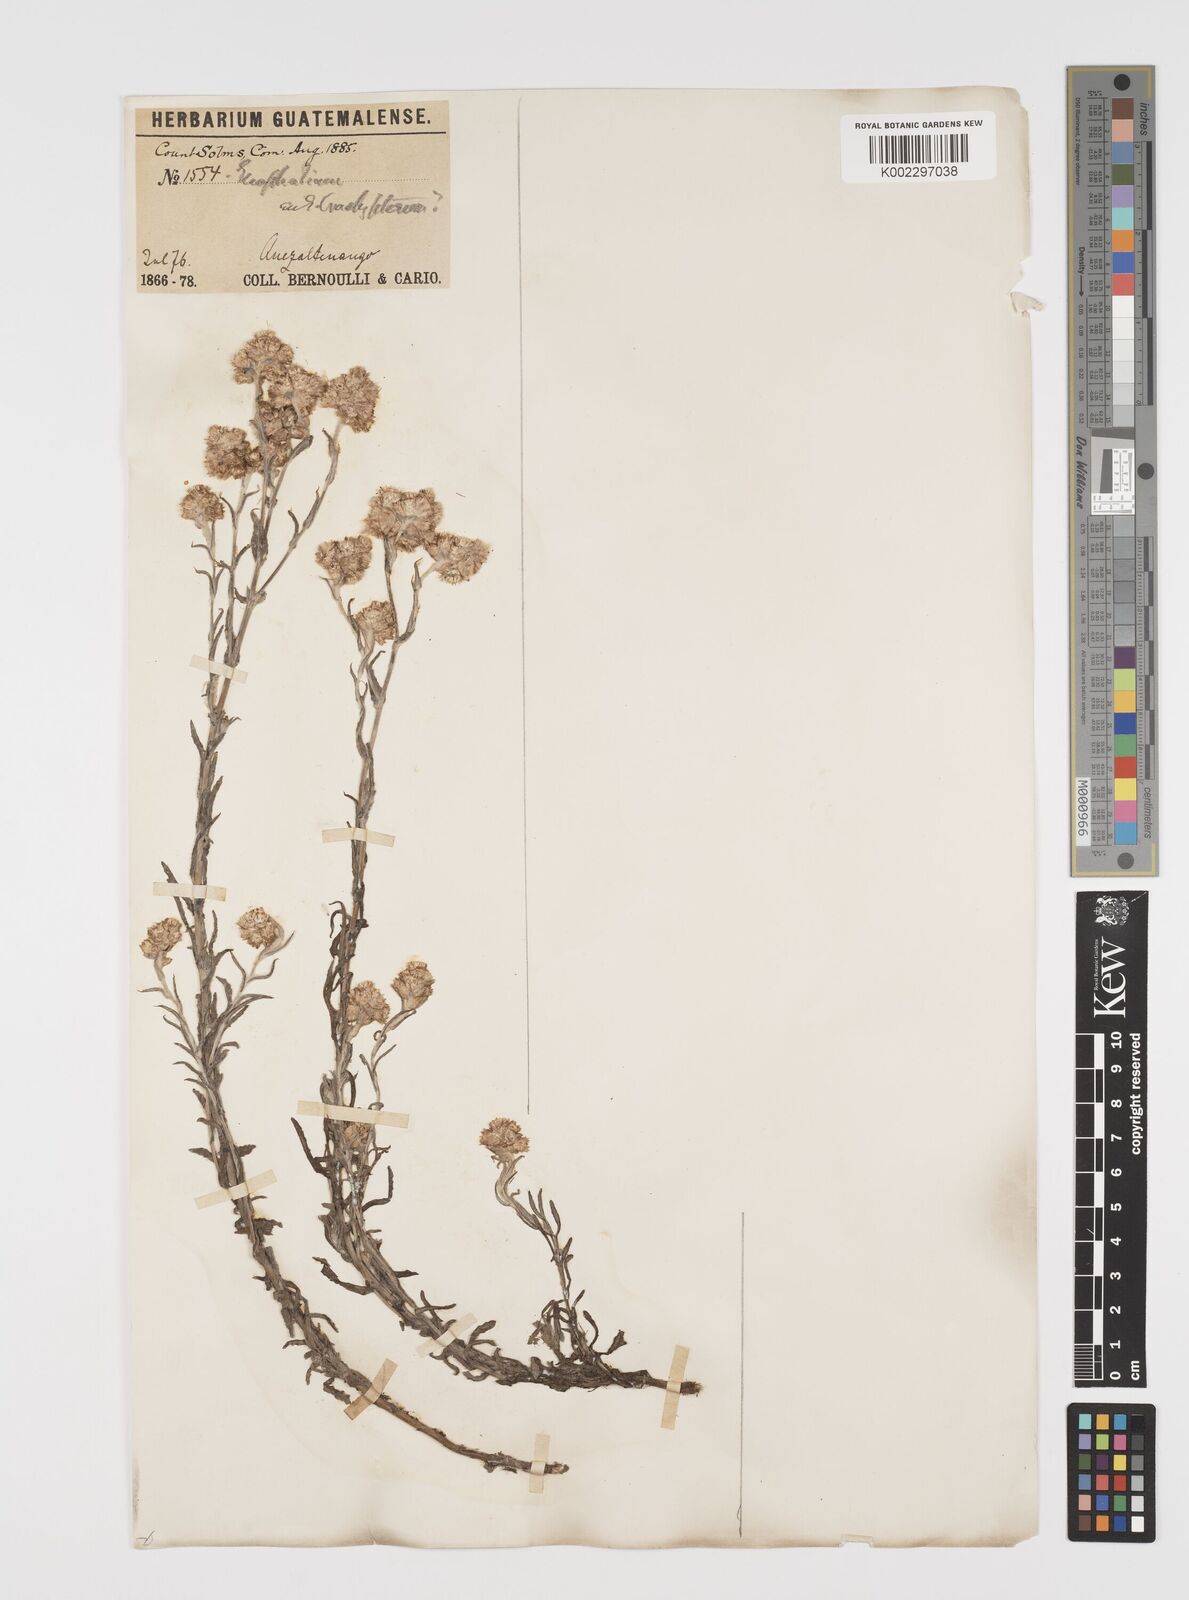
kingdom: Plantae
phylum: Tracheophyta
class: Magnoliopsida
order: Asterales
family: Asteraceae
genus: Pseudognaphalium
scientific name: Pseudognaphalium brachypterum
